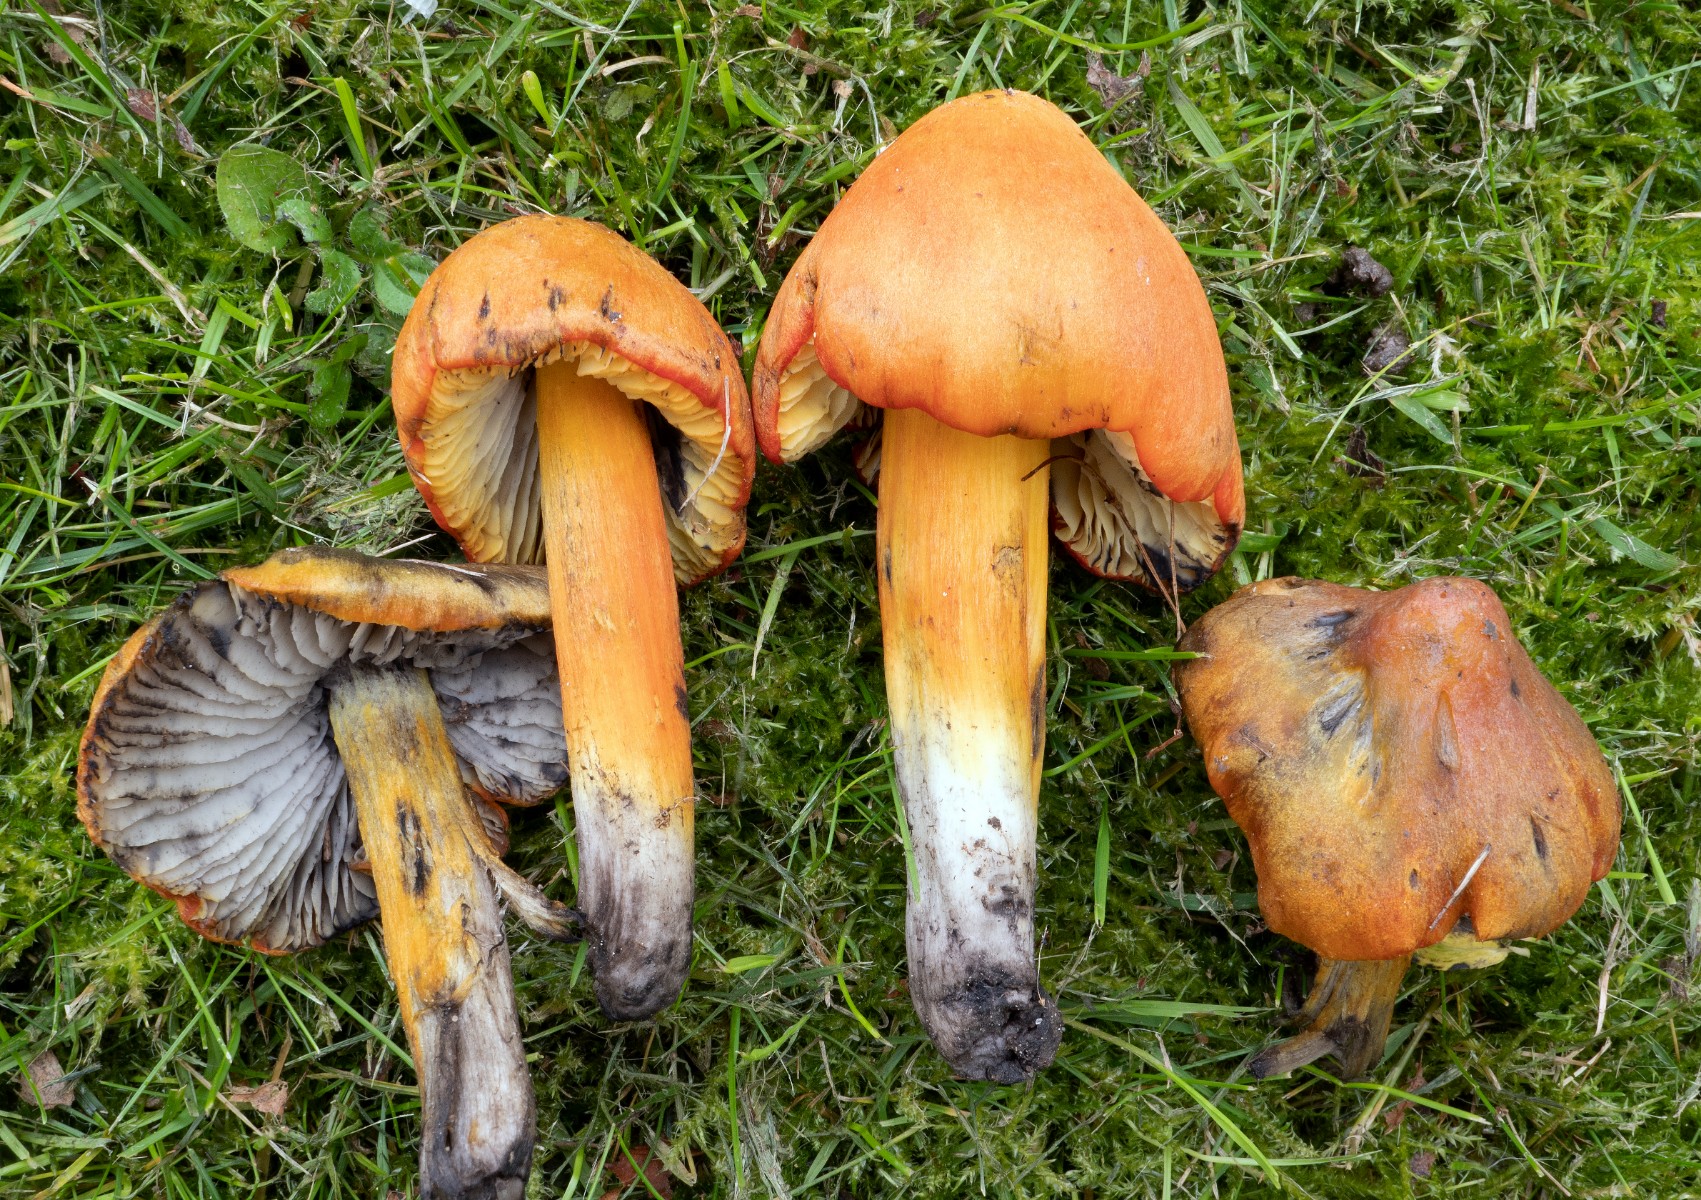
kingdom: Fungi
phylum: Basidiomycota
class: Agaricomycetes
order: Agaricales
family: Hygrophoraceae
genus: Hygrocybe
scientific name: Hygrocybe conica
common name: Blackening wax-cap
